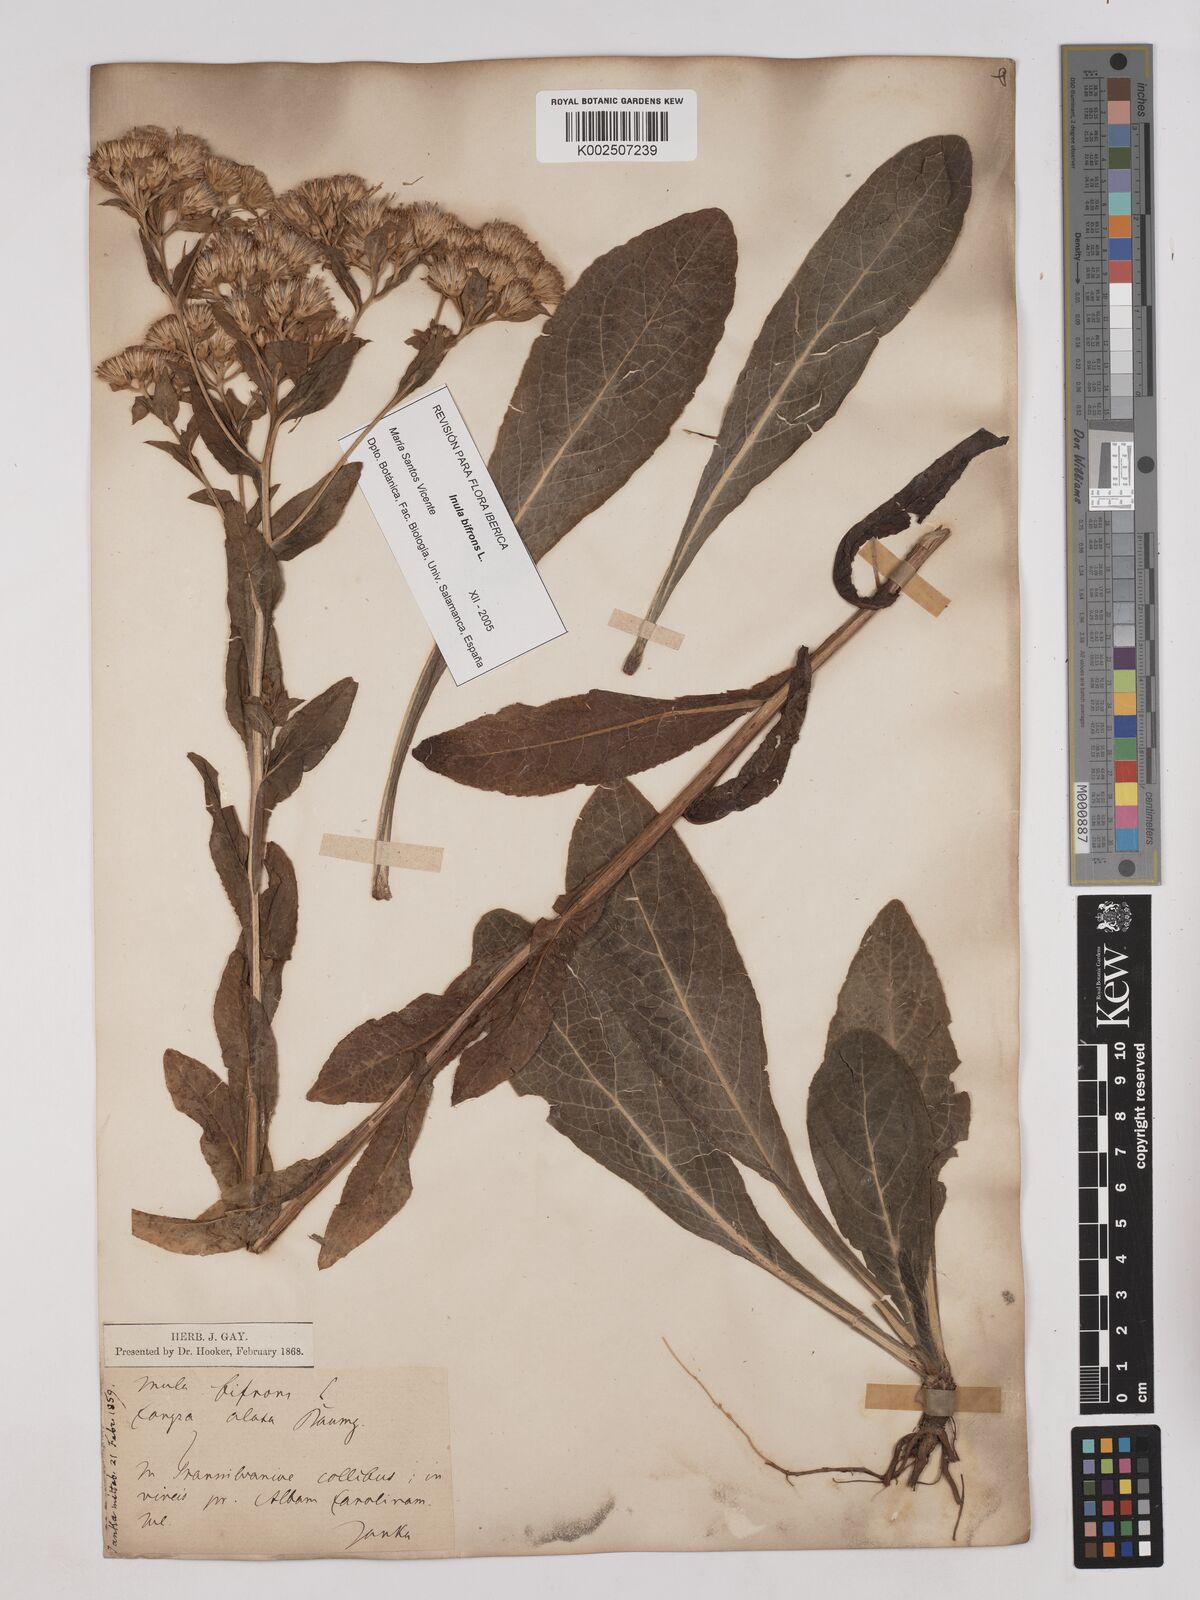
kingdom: Plantae
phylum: Tracheophyta
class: Magnoliopsida
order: Asterales
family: Asteraceae
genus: Pentanema
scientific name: Pentanema bifrons
